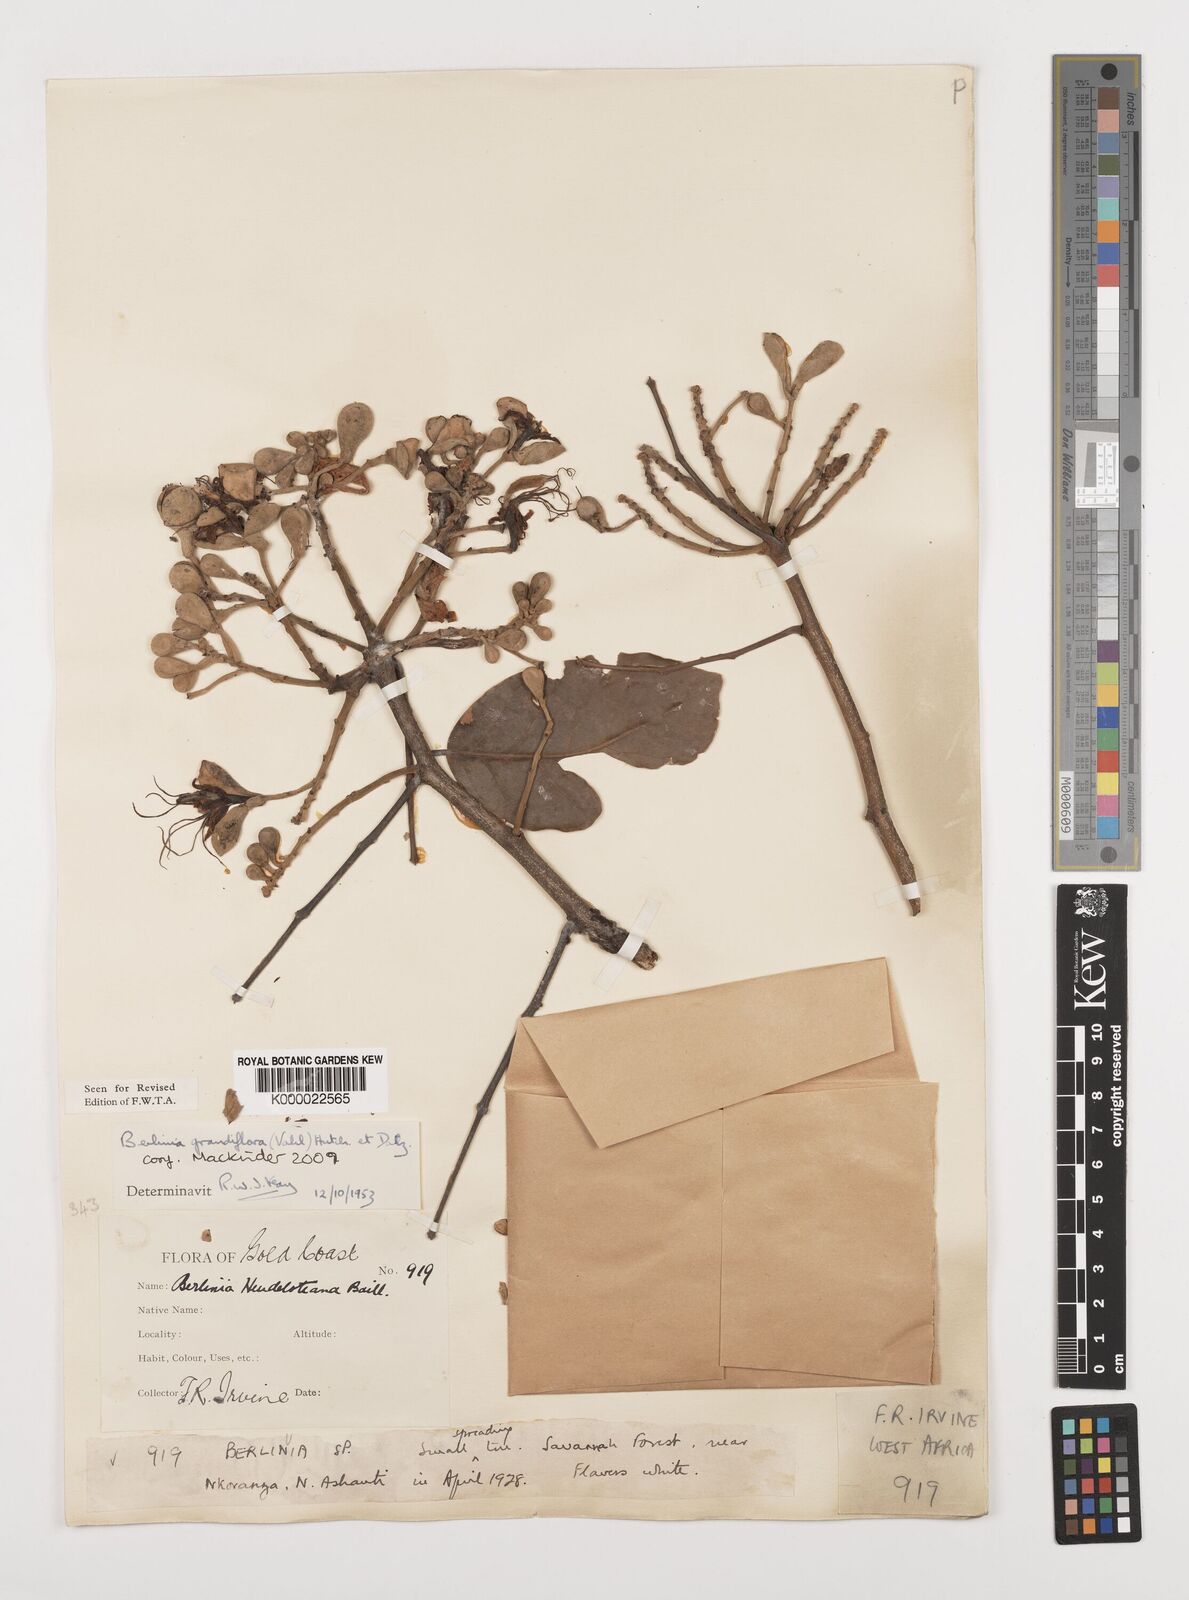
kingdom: Plantae
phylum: Tracheophyta
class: Magnoliopsida
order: Fabales
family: Fabaceae
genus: Berlinia
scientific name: Berlinia grandiflora
